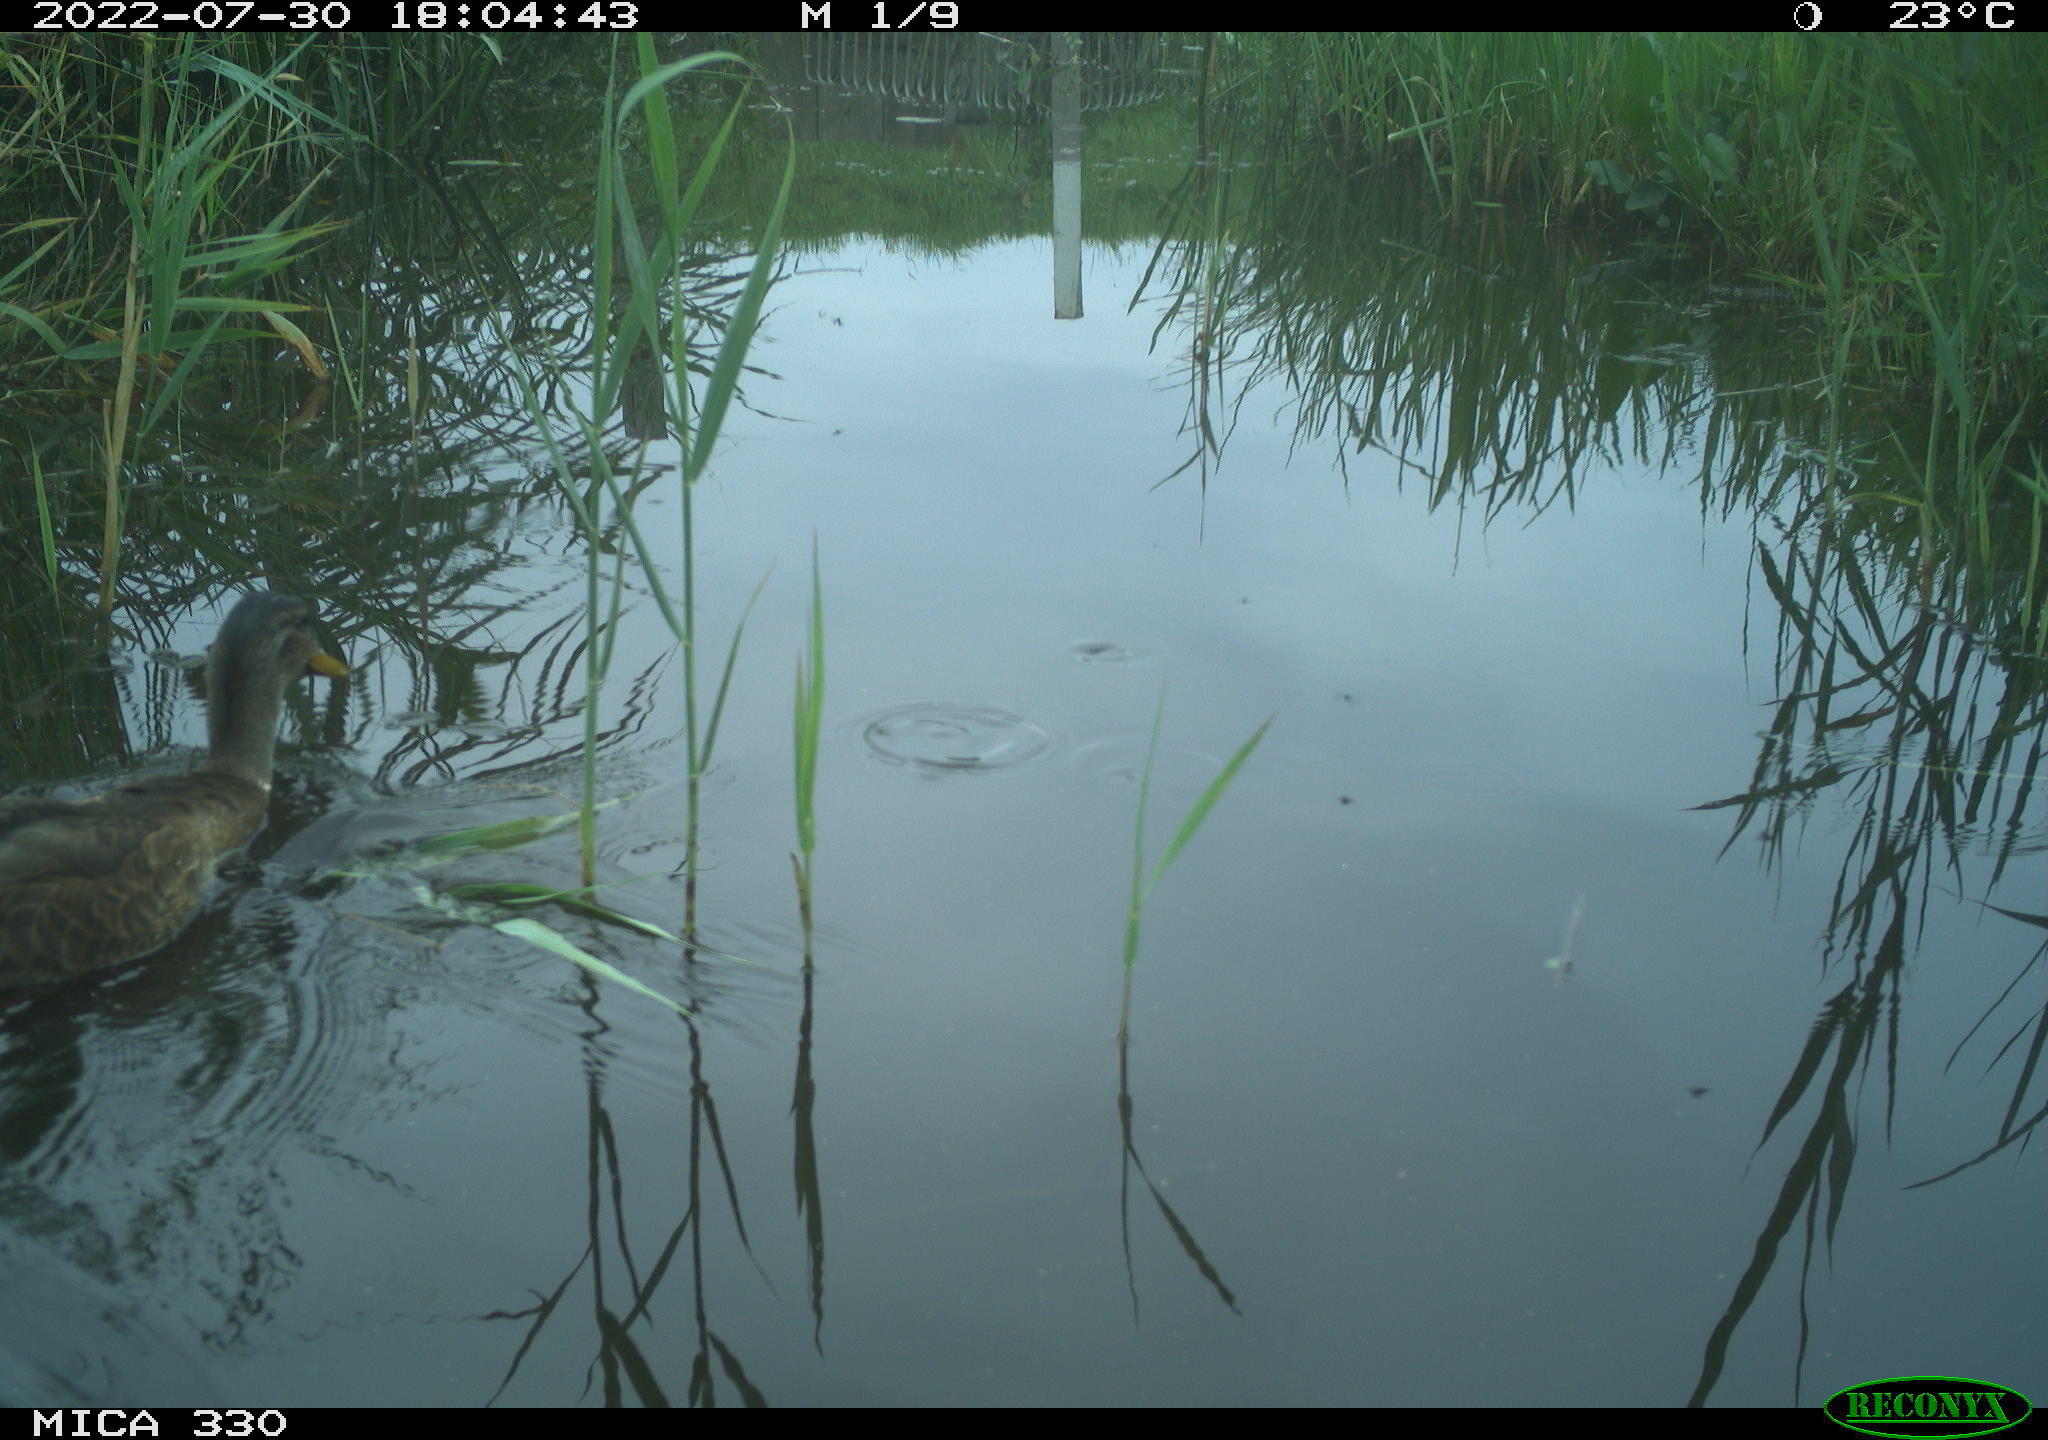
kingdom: Animalia
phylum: Chordata
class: Aves
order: Anseriformes
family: Anatidae
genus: Anas
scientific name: Anas platyrhynchos
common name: Mallard
